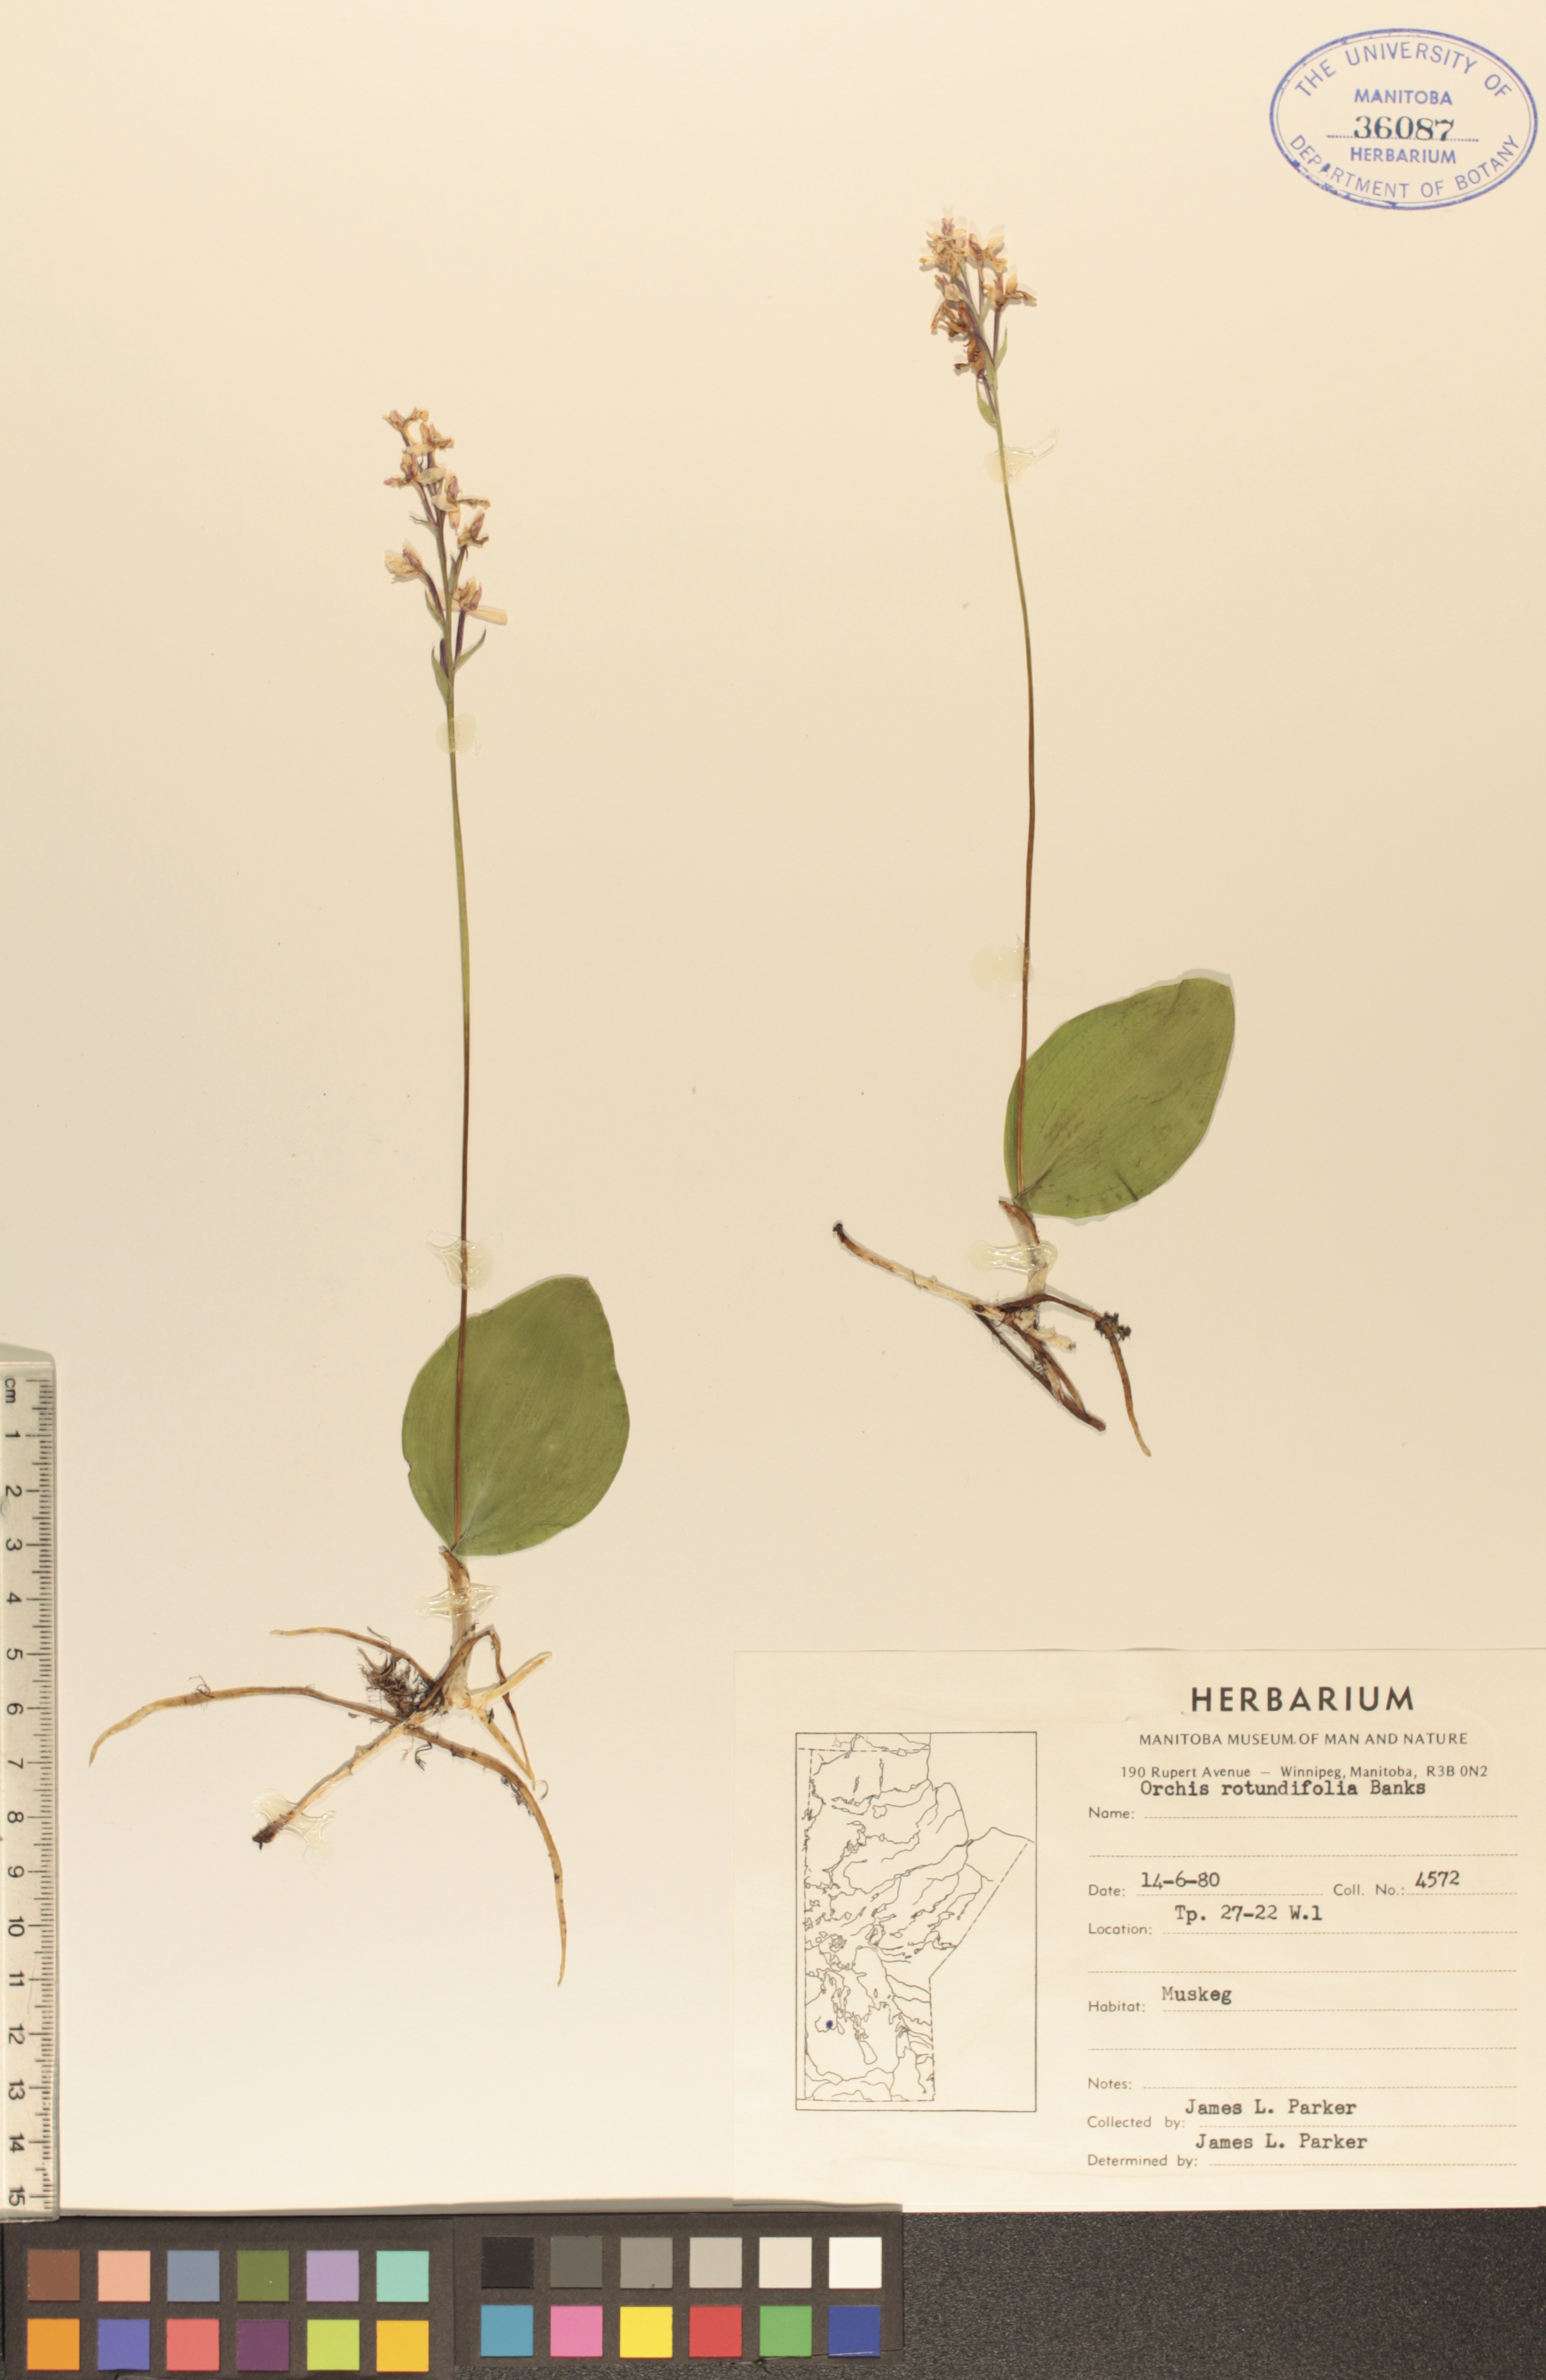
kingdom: Plantae
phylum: Tracheophyta
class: Liliopsida
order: Asparagales
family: Orchidaceae
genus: Galearis
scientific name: Galearis rotundifolia
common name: One-leaved orchis
